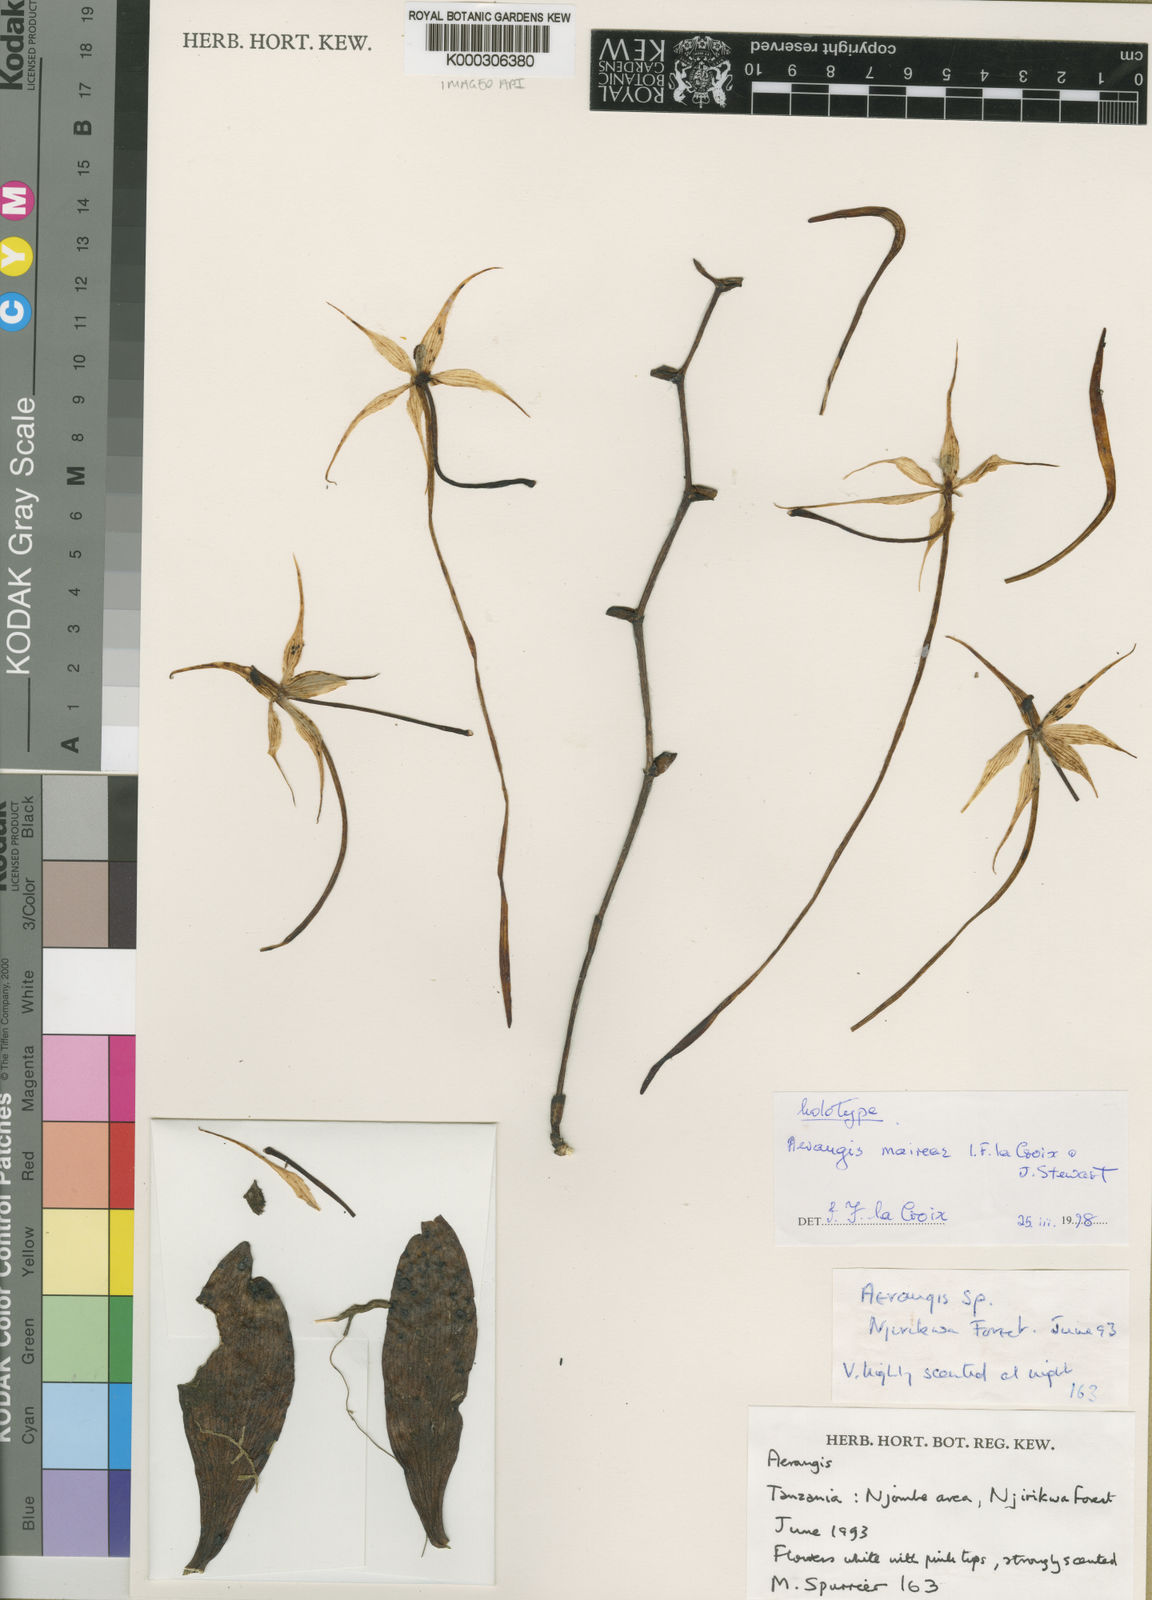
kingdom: Plantae
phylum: Tracheophyta
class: Liliopsida
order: Asparagales
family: Orchidaceae
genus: Aerangis
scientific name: Aerangis maireae
